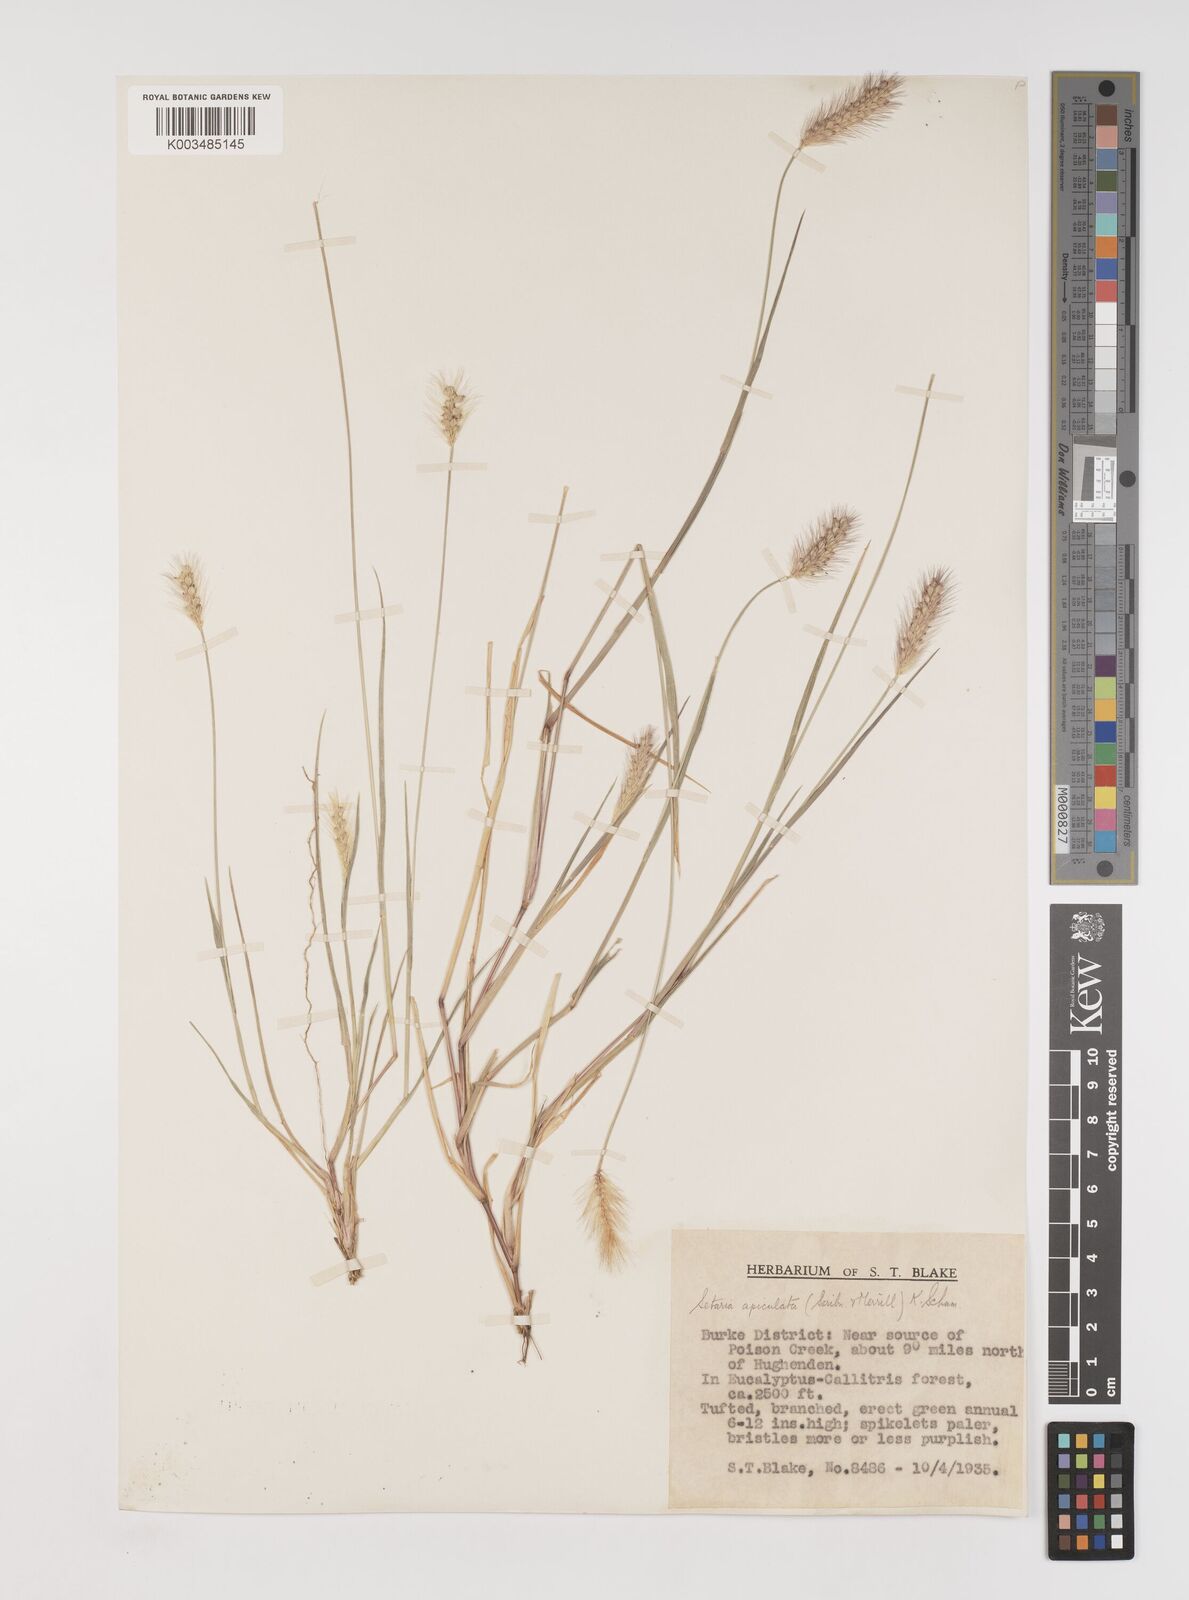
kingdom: Plantae
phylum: Tracheophyta
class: Liliopsida
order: Poales
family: Poaceae
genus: Setaria
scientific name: Setaria apiculata
